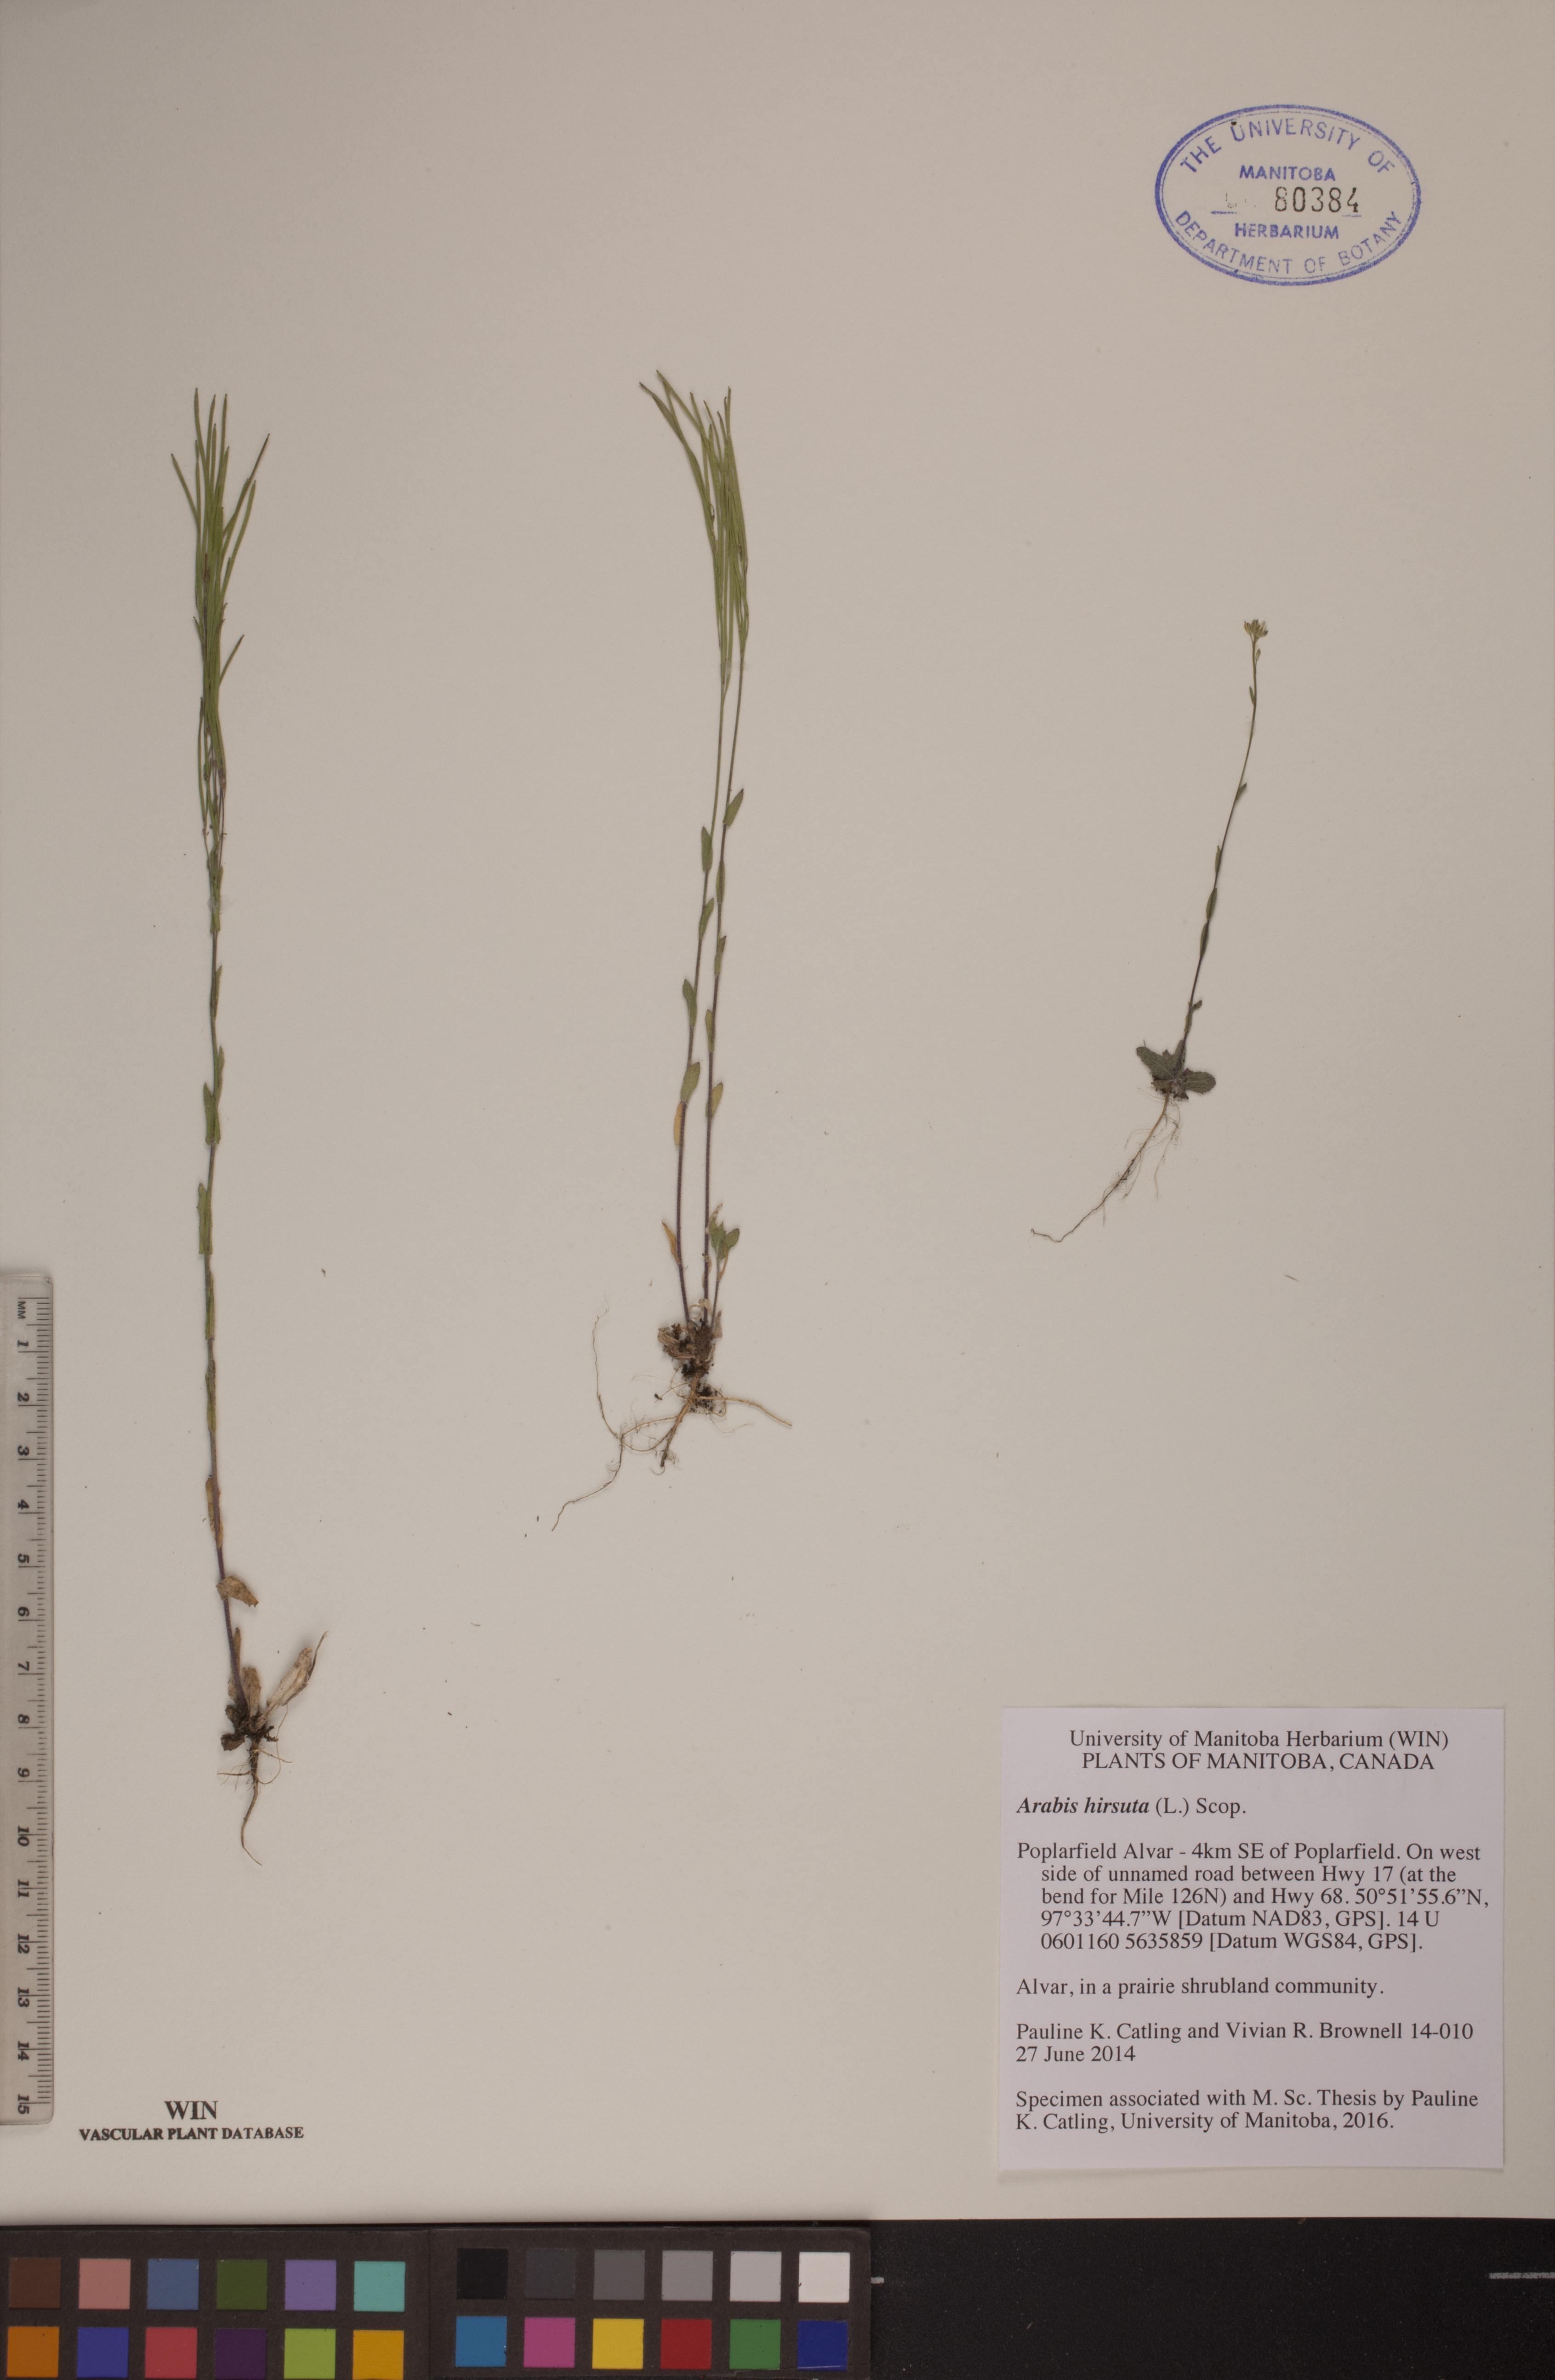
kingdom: Plantae
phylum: Tracheophyta
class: Magnoliopsida
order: Brassicales
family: Brassicaceae
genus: Arabis
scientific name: Arabis hirsuta
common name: Hairy rock-cress
